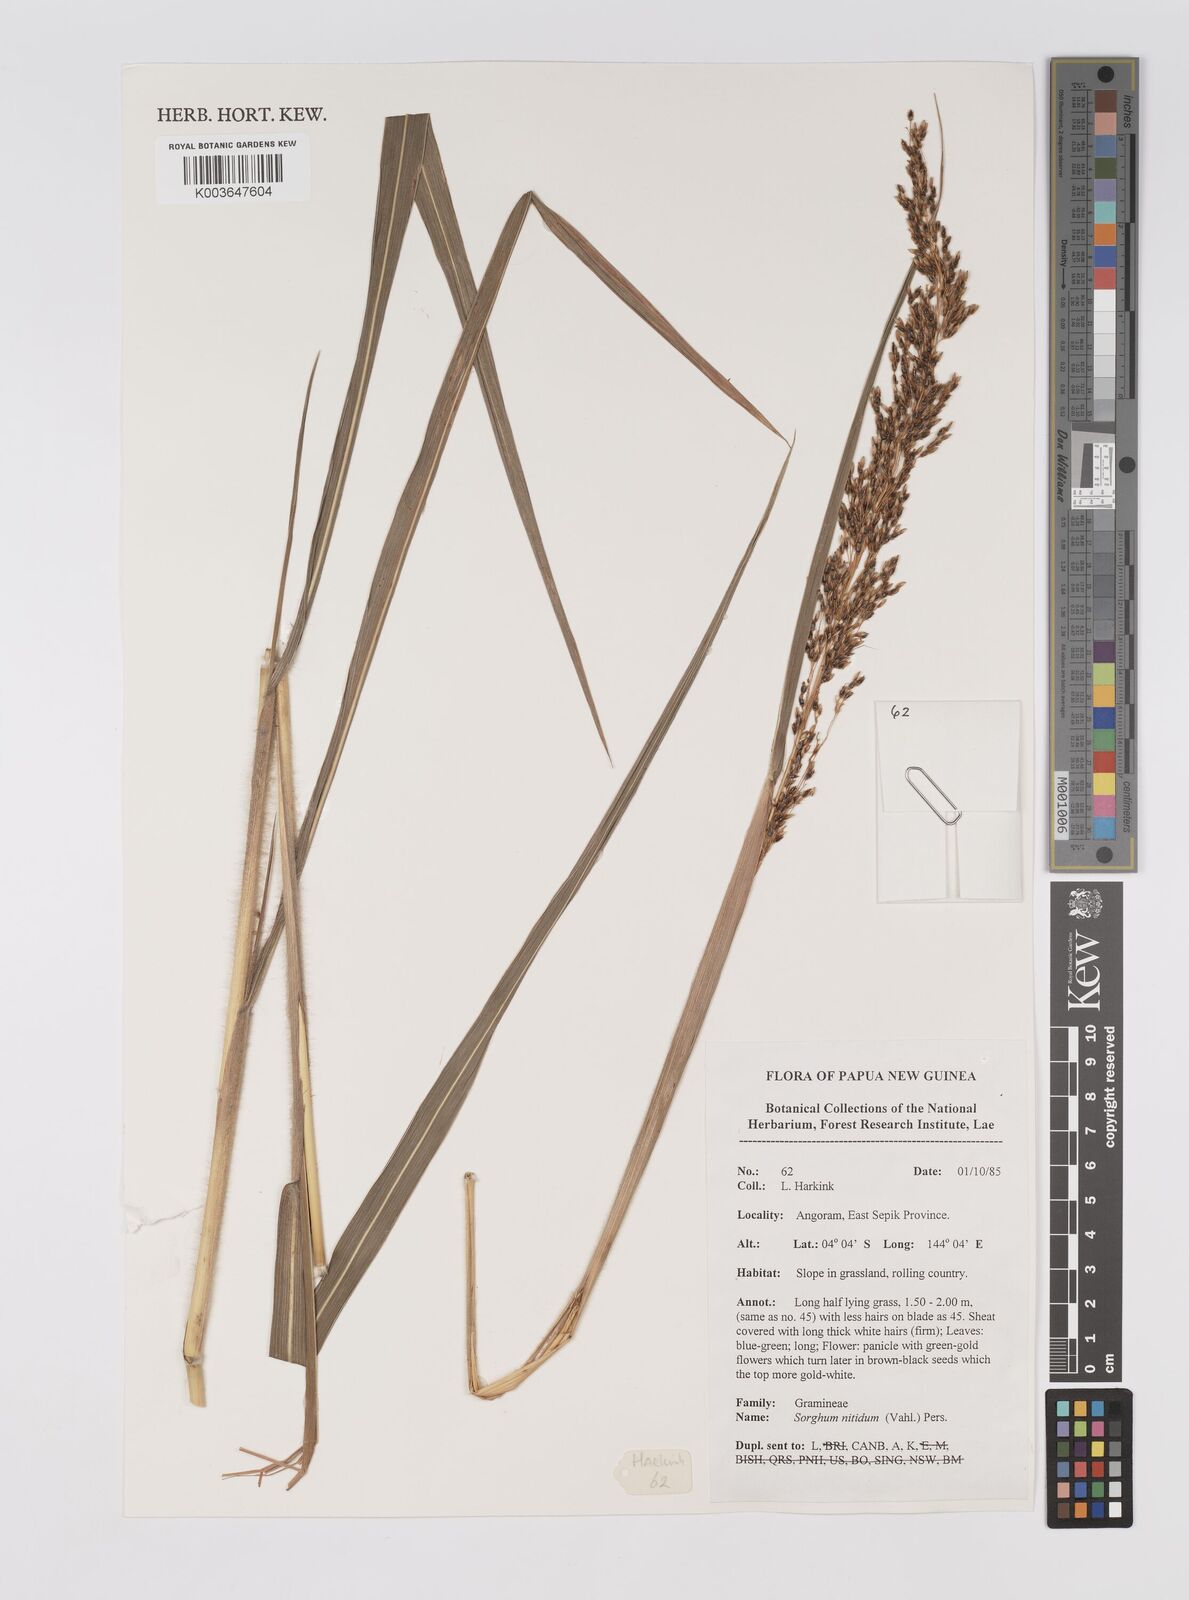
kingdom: Plantae
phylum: Tracheophyta
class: Liliopsida
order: Poales
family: Poaceae
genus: Sorghum
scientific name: Sorghum nitidum
